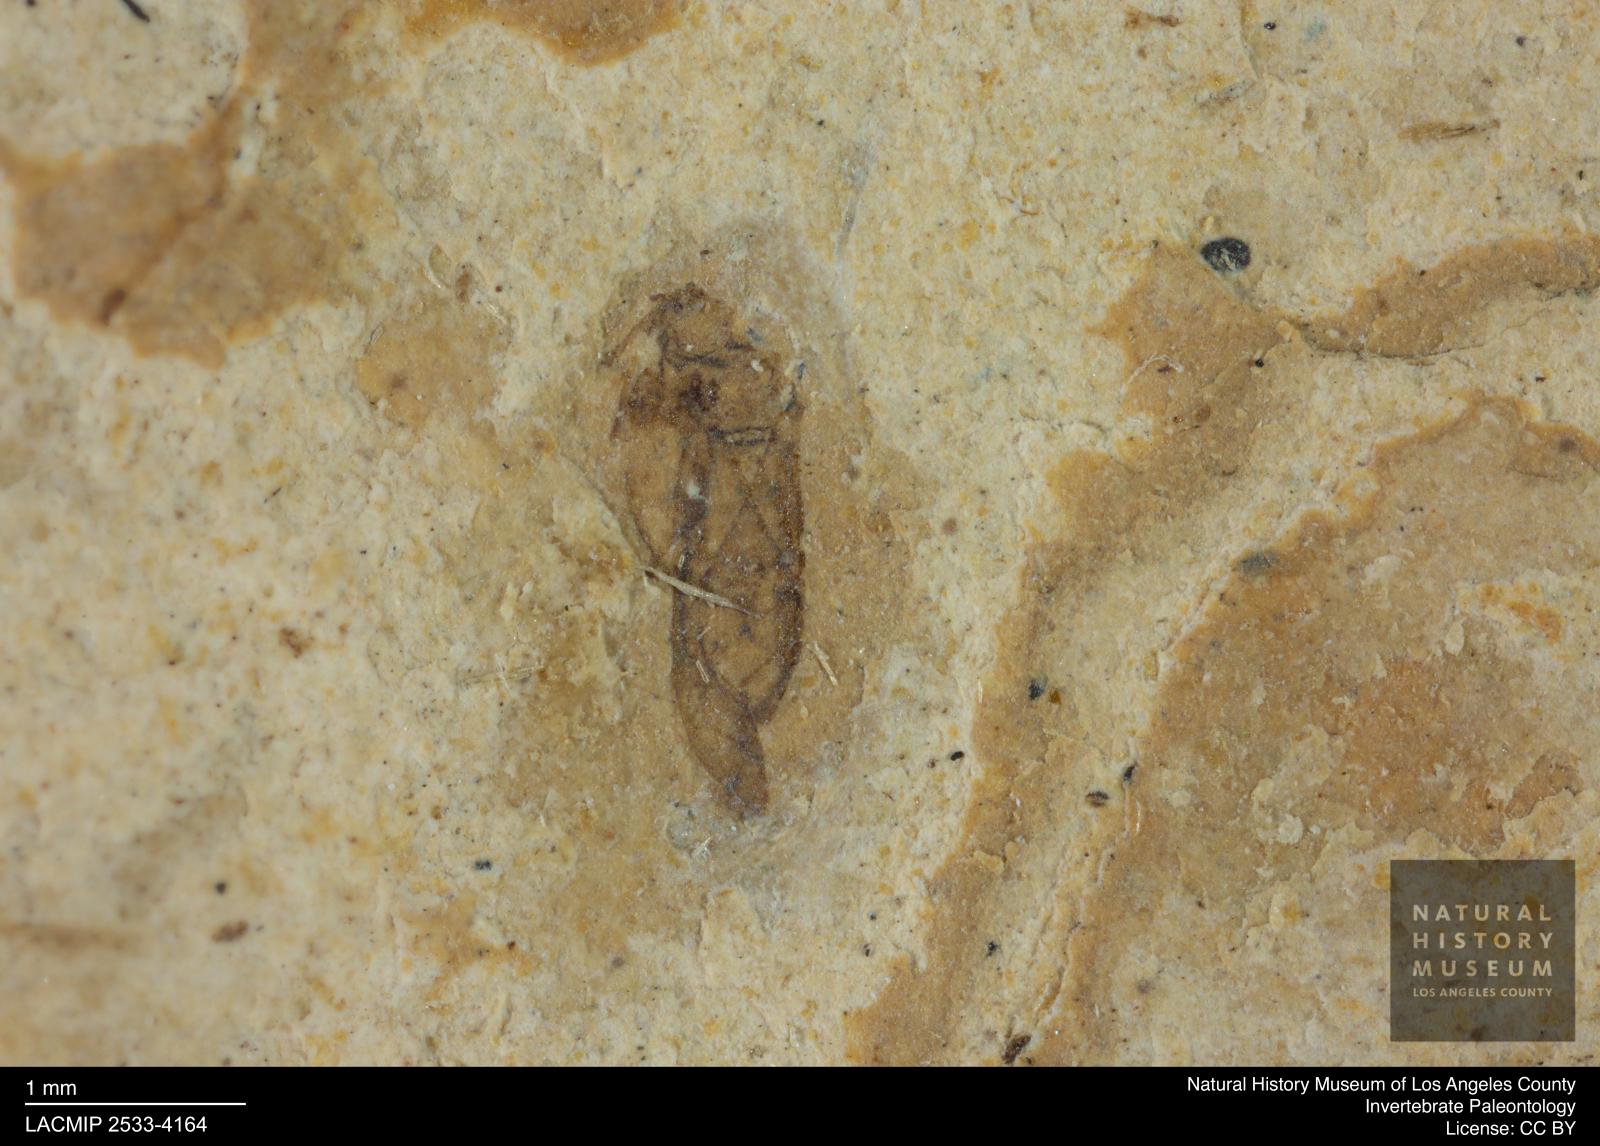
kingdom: Animalia
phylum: Arthropoda
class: Insecta
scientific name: Insecta
